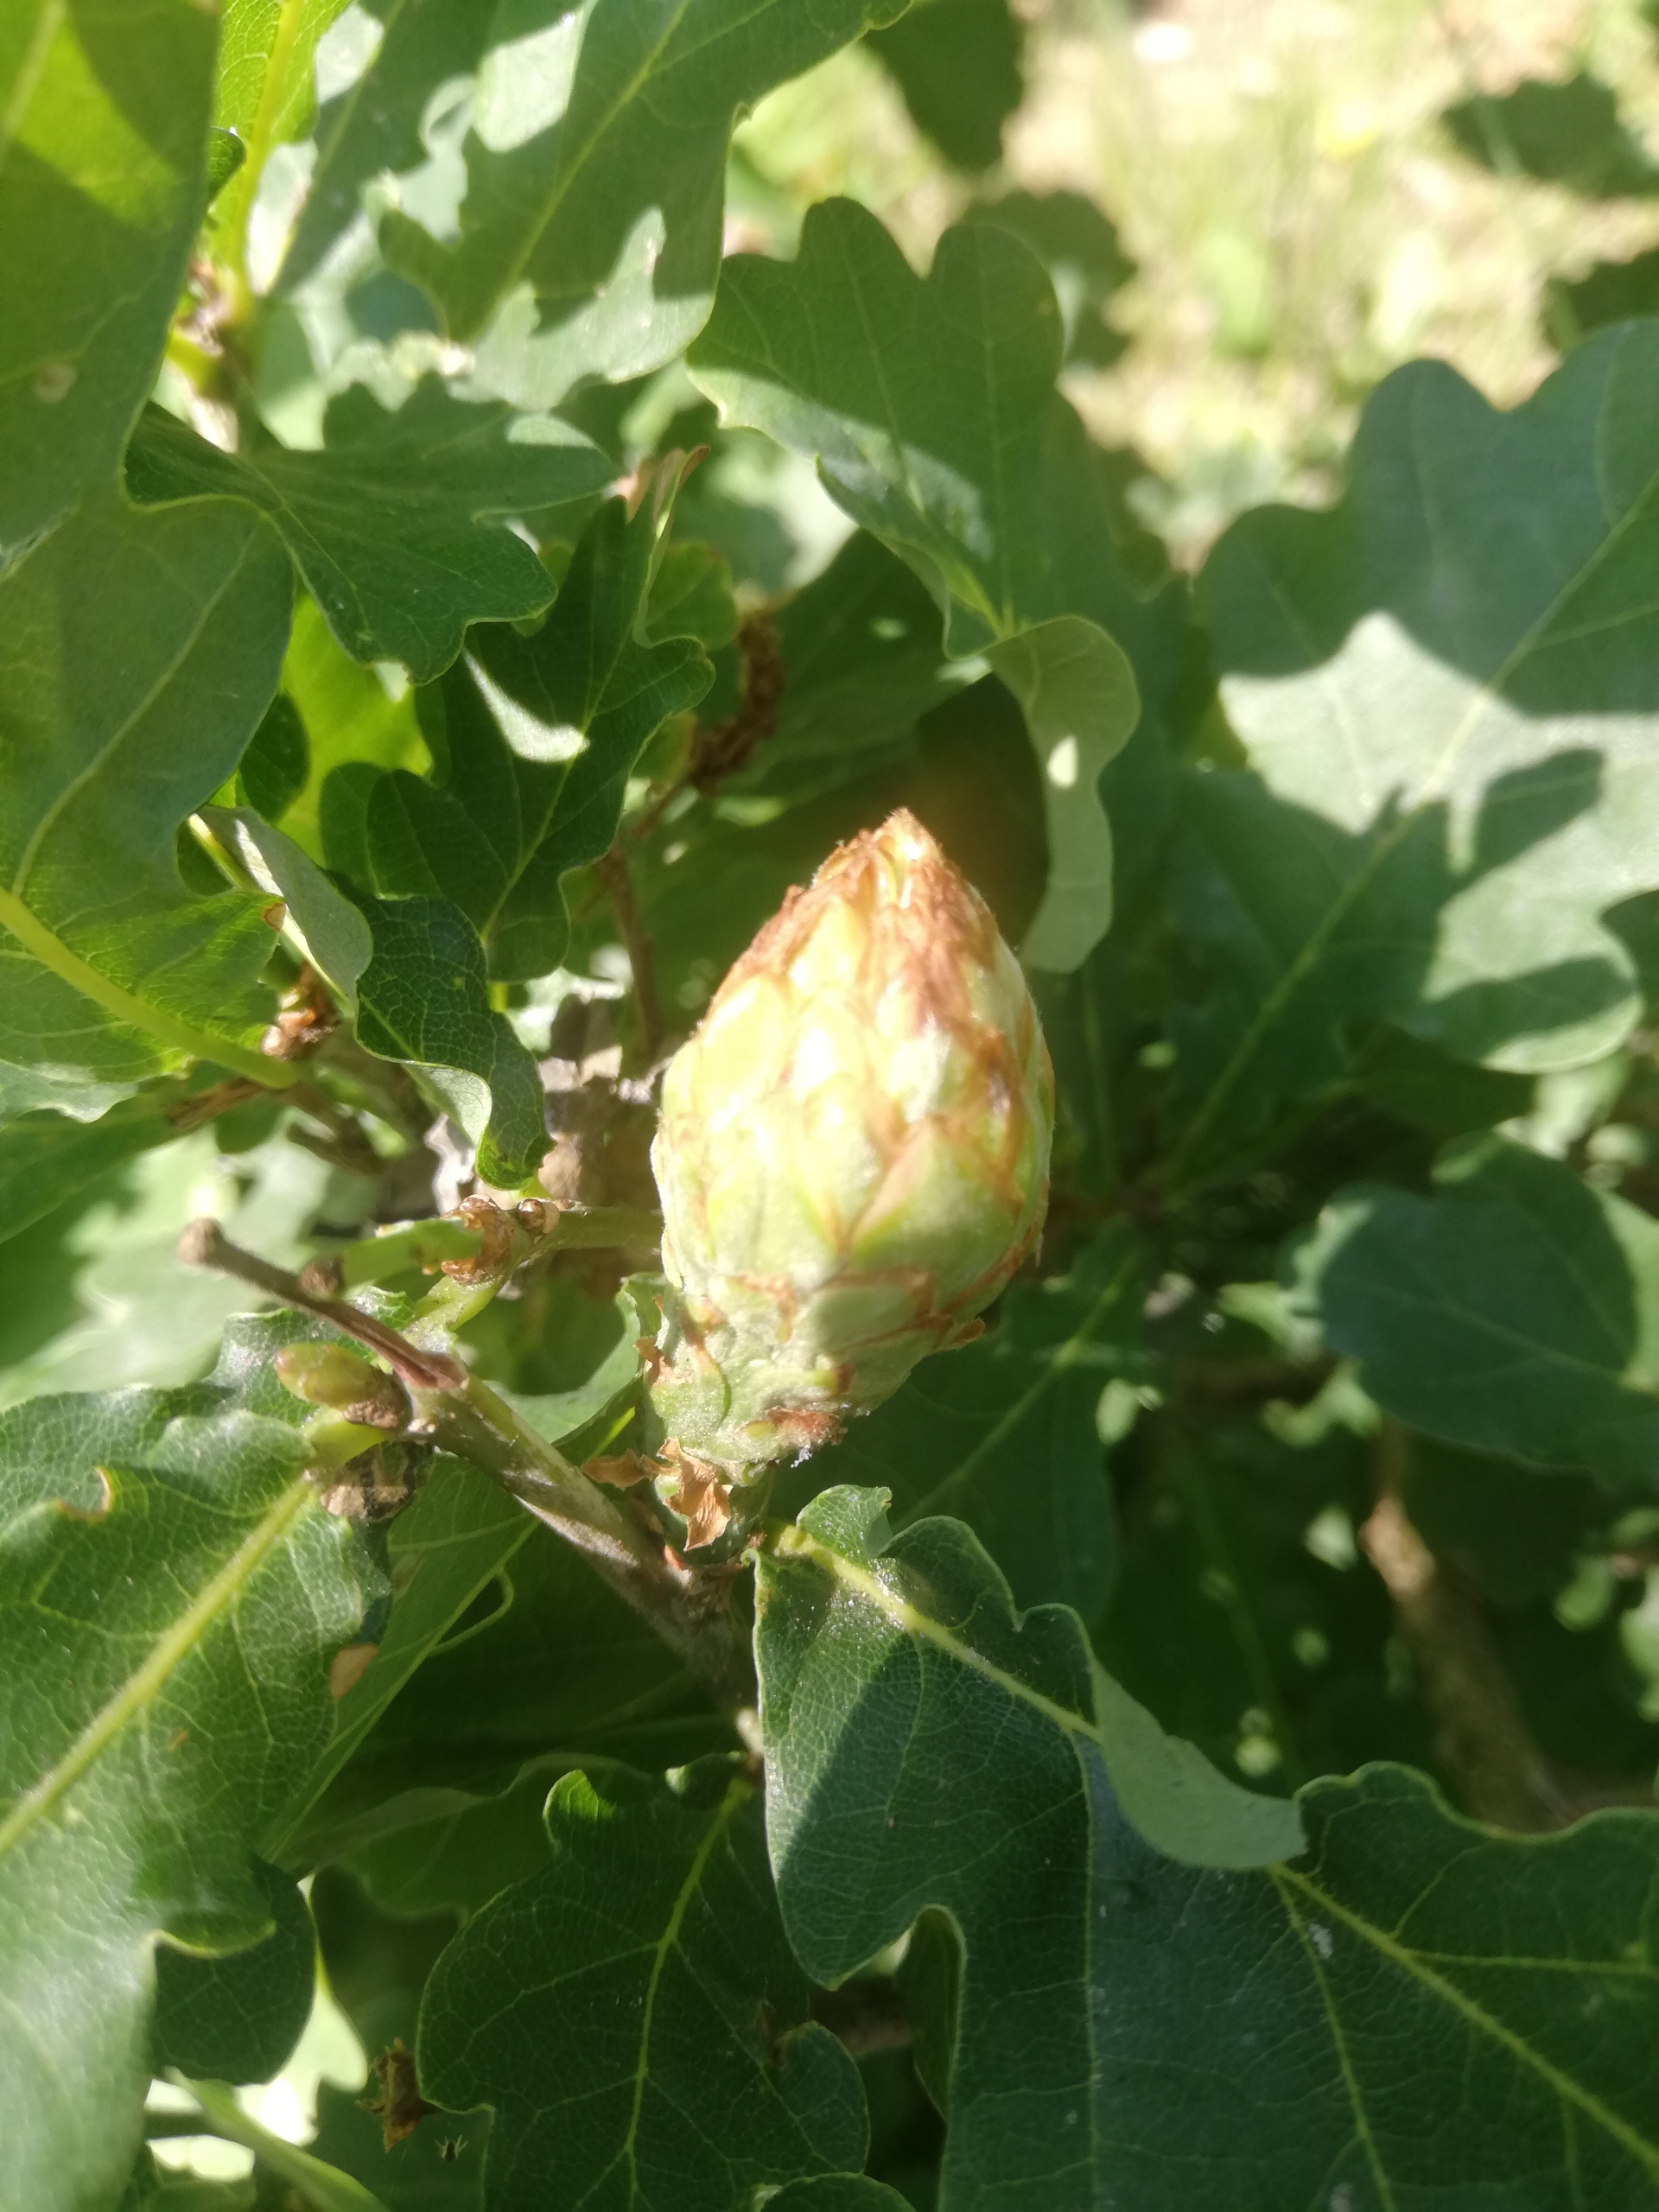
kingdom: Animalia
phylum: Arthropoda
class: Insecta
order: Hymenoptera
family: Cynipidae
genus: Andricus
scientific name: Andricus foecundatrix
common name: Artiskokgalhveps
